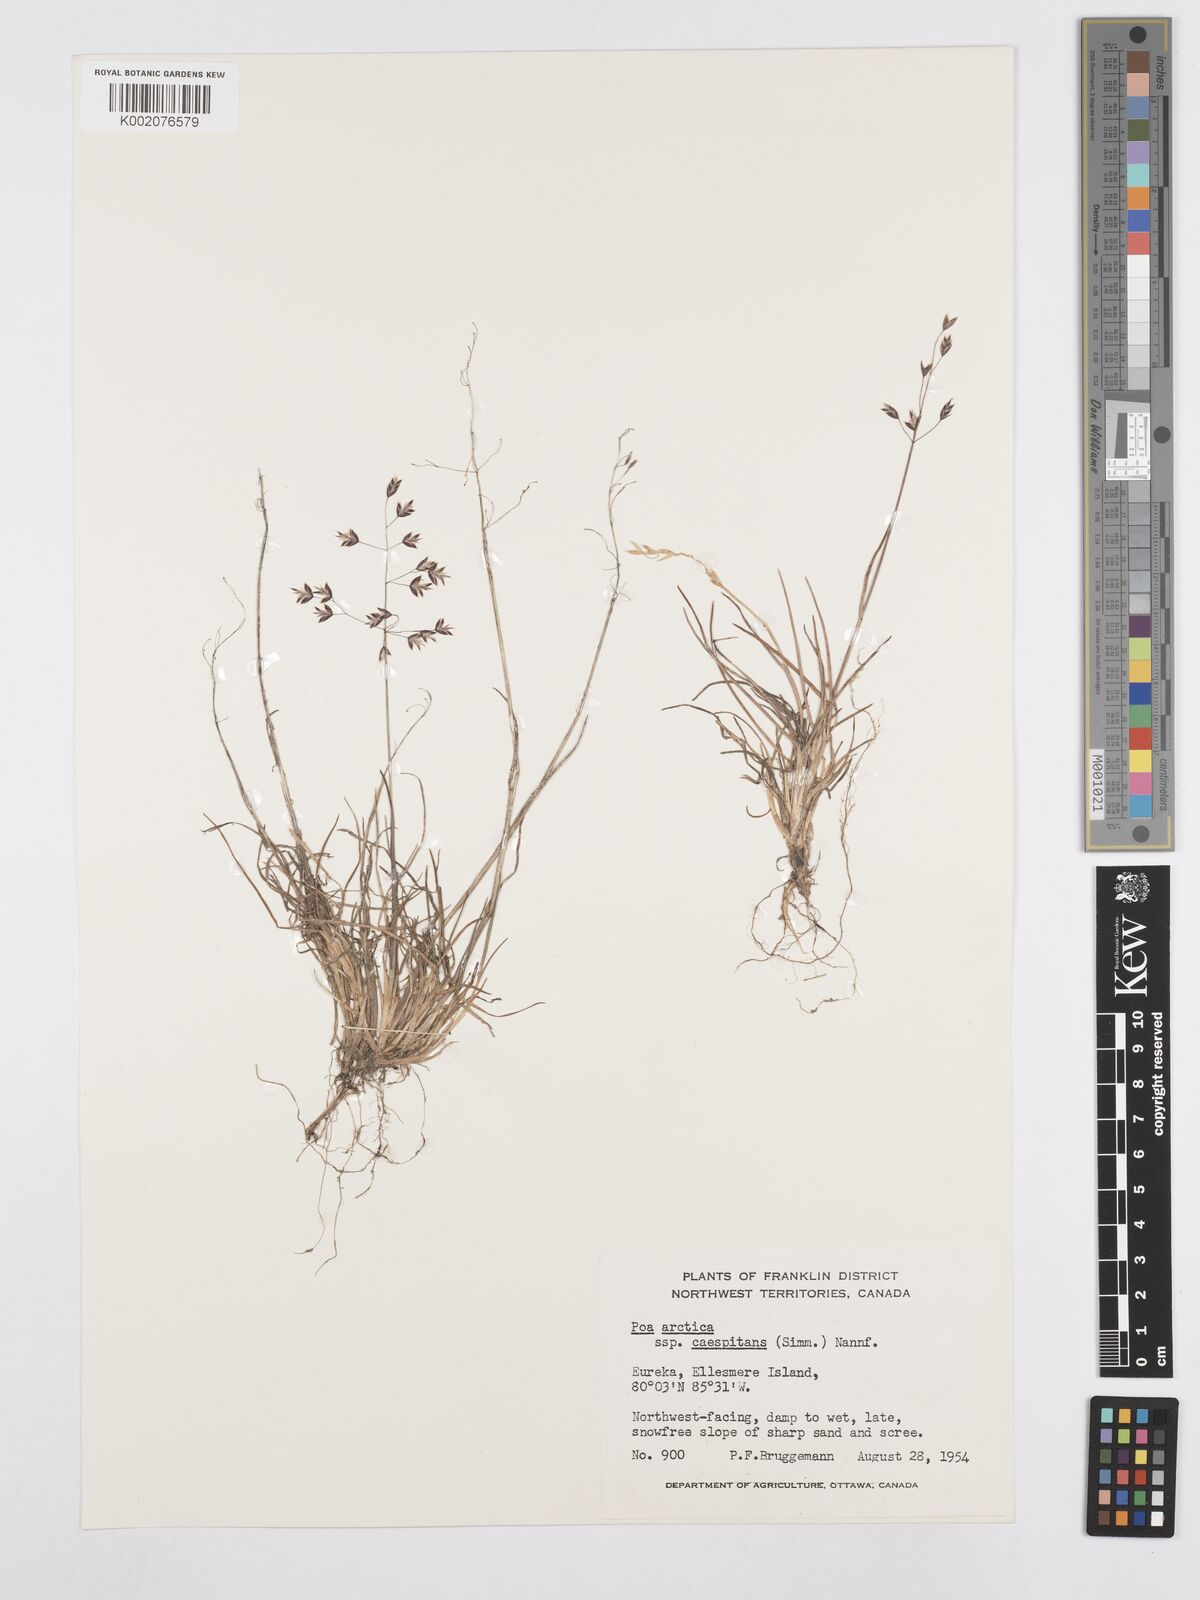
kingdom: Plantae
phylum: Tracheophyta
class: Liliopsida
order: Poales
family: Poaceae
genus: Poa
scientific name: Poa tolmatchewii
